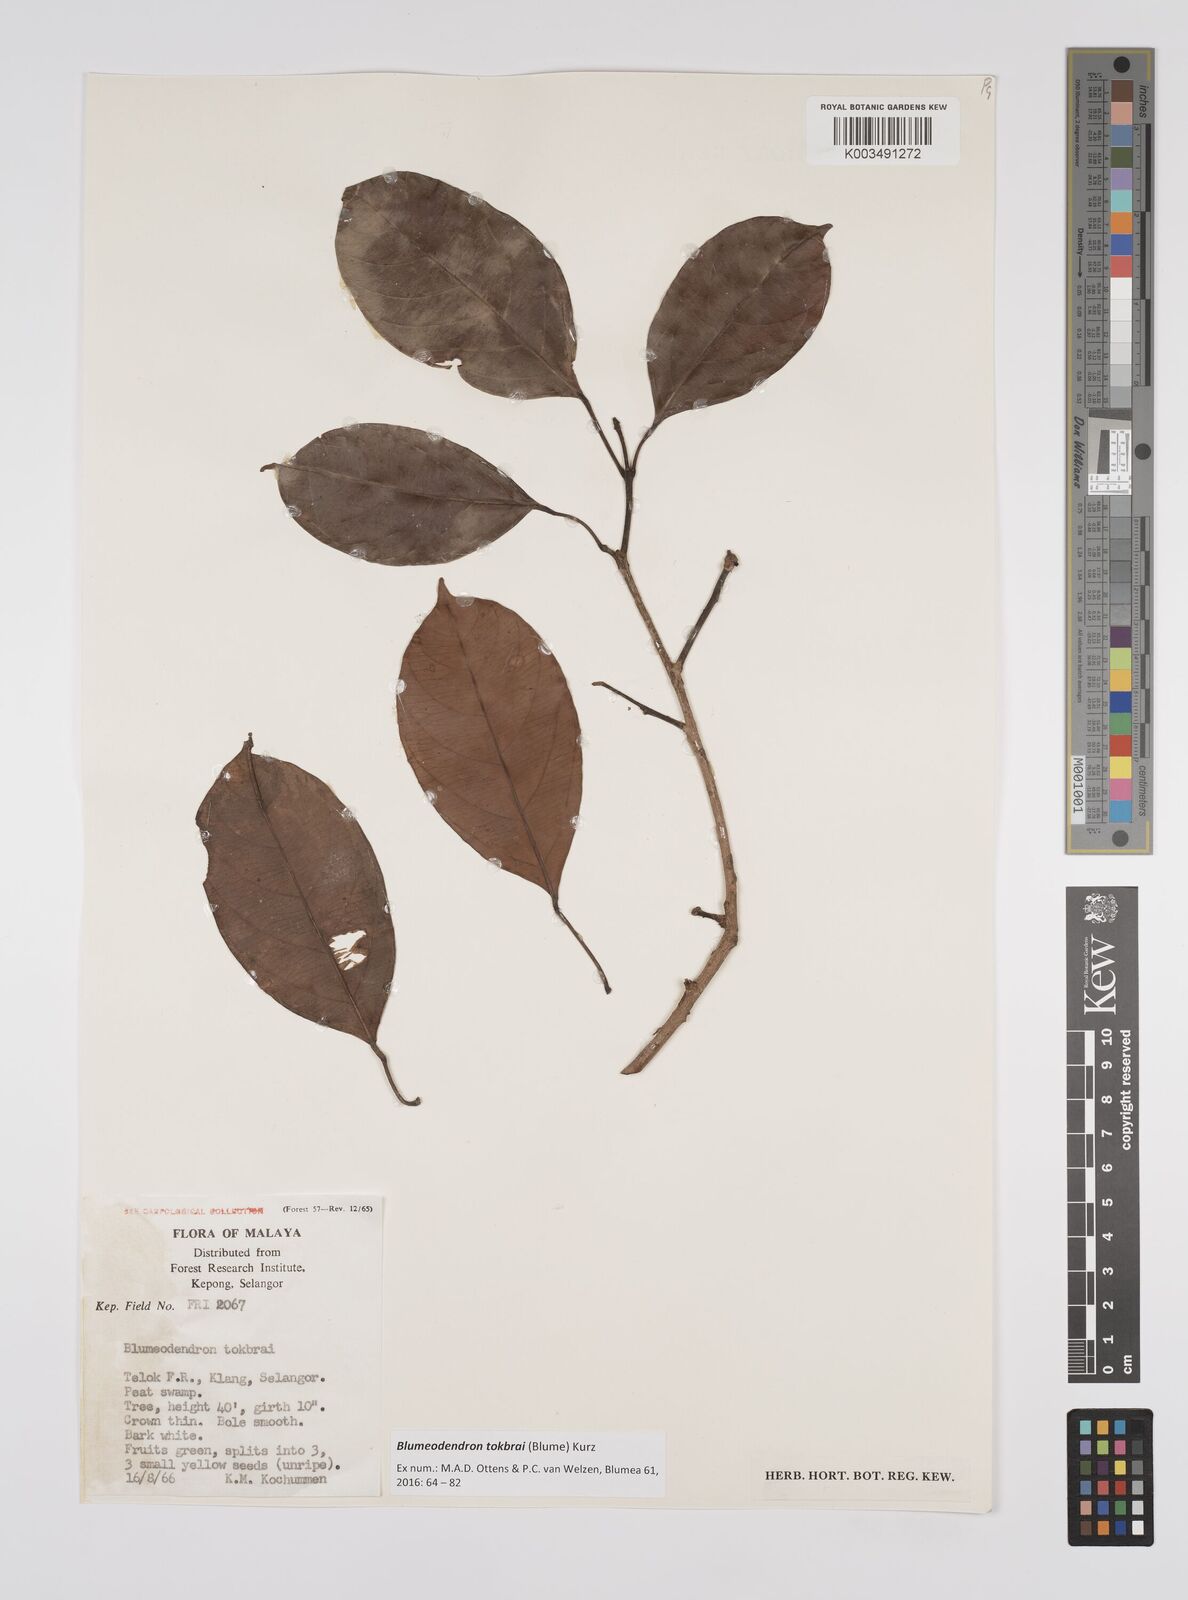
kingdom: Plantae
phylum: Tracheophyta
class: Magnoliopsida
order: Malpighiales
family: Euphorbiaceae
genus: Blumeodendron
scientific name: Blumeodendron tokbrai
